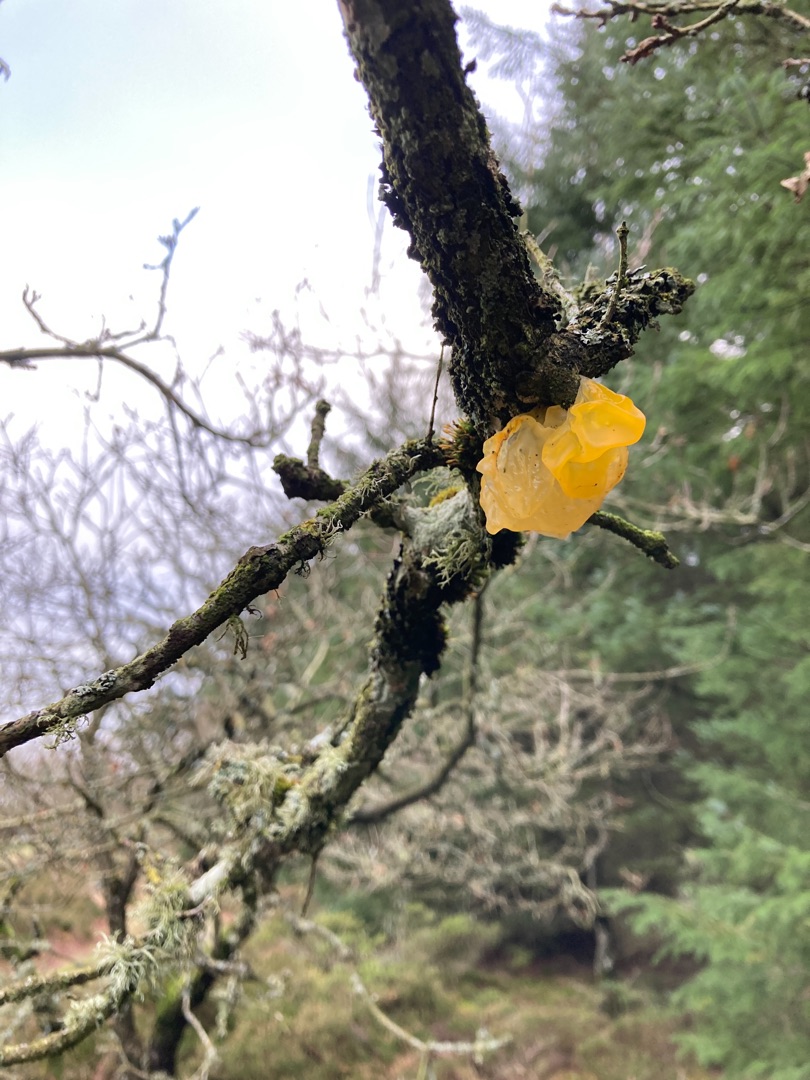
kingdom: Fungi
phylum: Basidiomycota
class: Tremellomycetes
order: Tremellales
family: Tremellaceae
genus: Tremella
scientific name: Tremella mesenterica
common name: Gul bævresvamp
